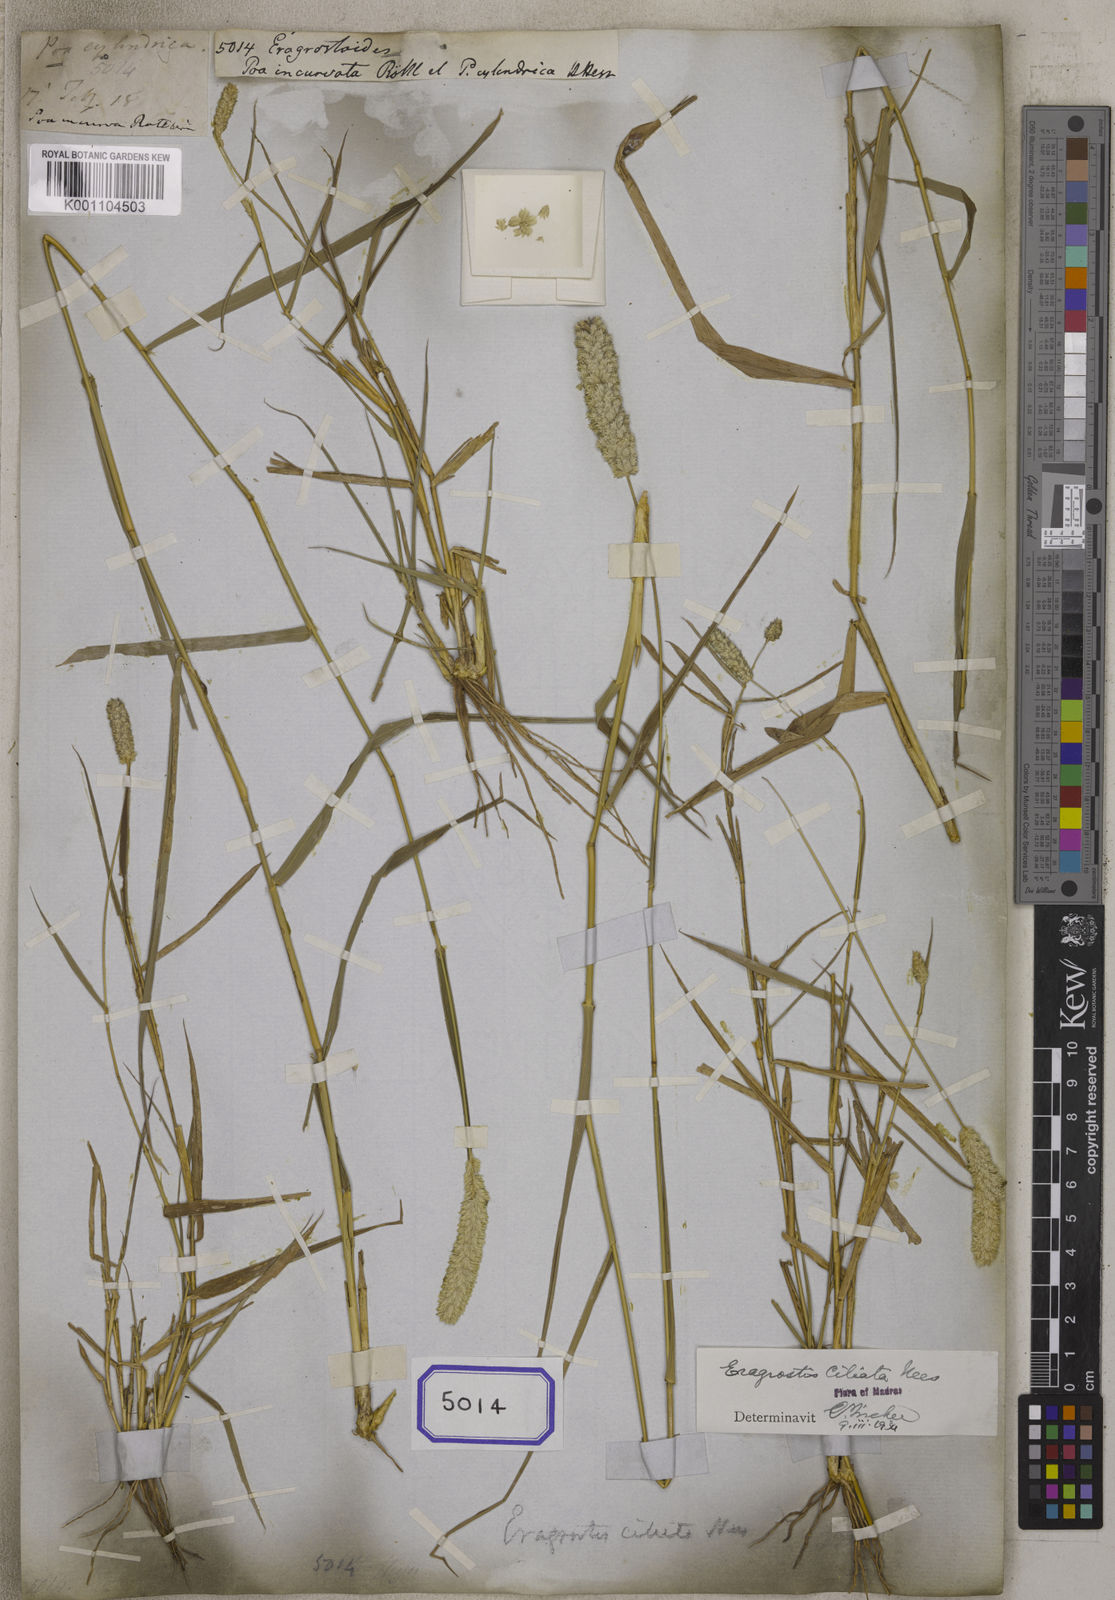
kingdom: Plantae
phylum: Tracheophyta
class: Liliopsida
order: Poales
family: Poaceae
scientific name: Poaceae
